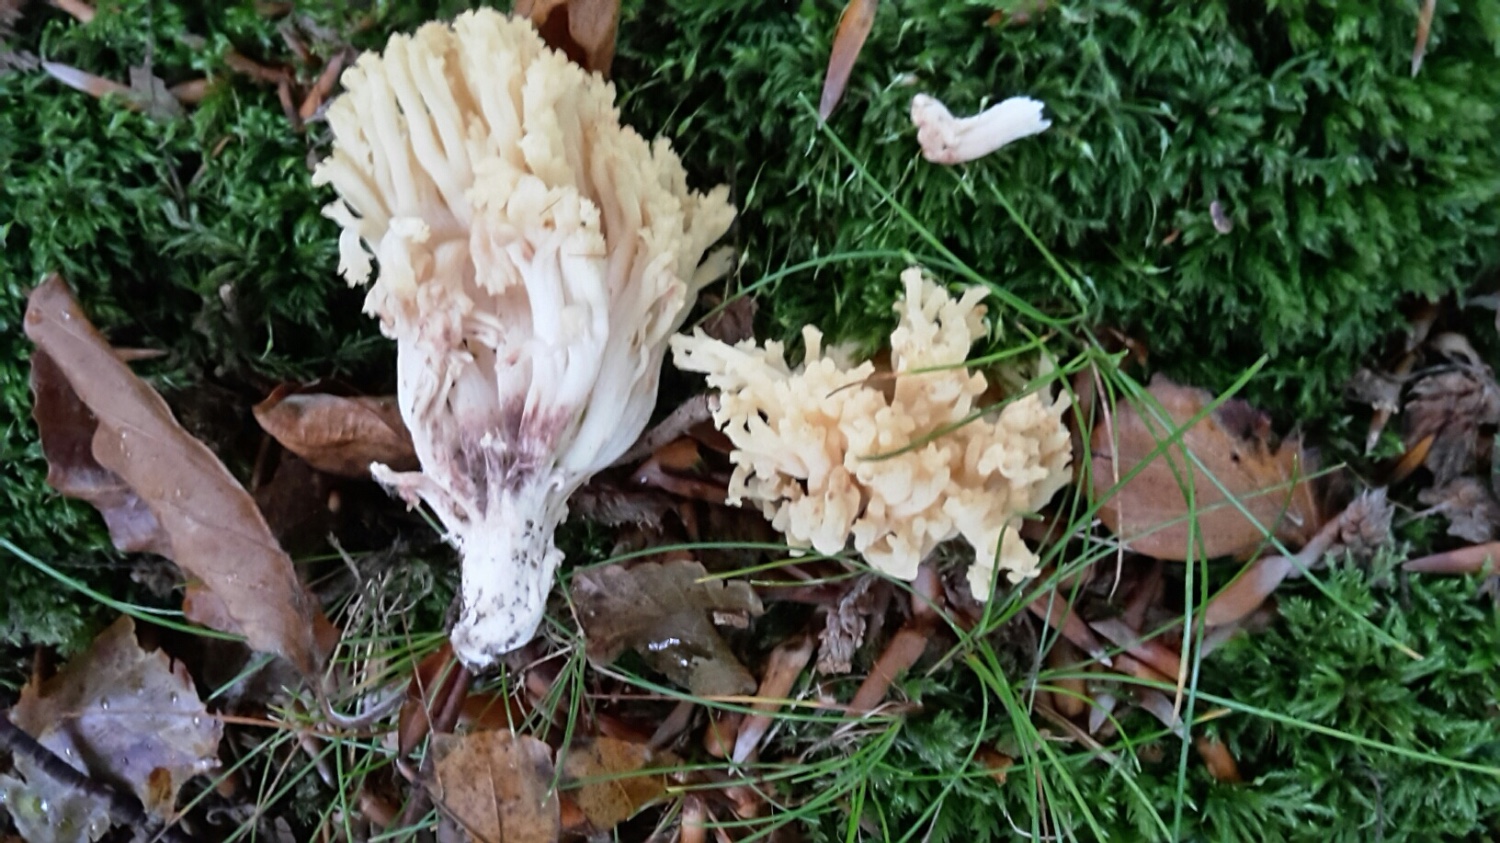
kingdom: Fungi
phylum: Basidiomycota
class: Agaricomycetes
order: Gomphales
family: Gomphaceae
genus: Ramaria
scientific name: Ramaria sanguinea
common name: blodplettet koralsvamp
